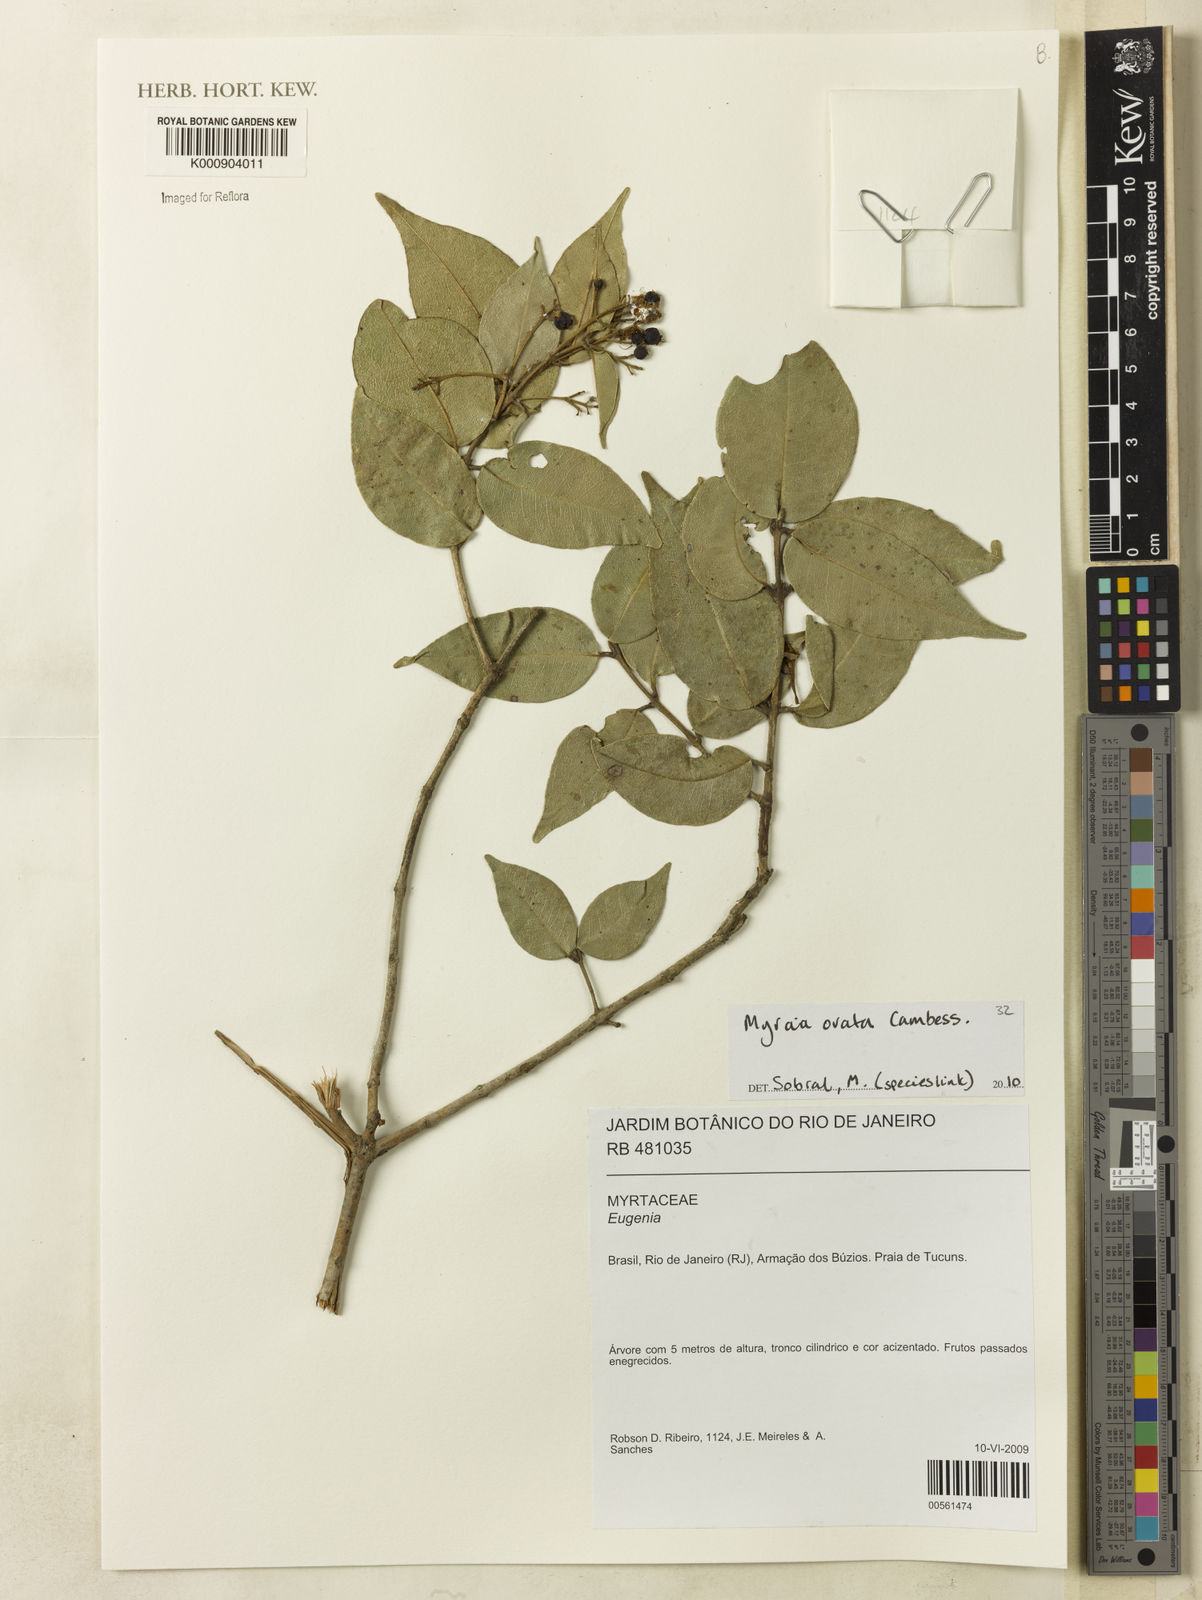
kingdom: Plantae
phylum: Tracheophyta
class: Magnoliopsida
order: Myrtales
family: Myrtaceae
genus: Myrcia
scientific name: Myrcia ovata
